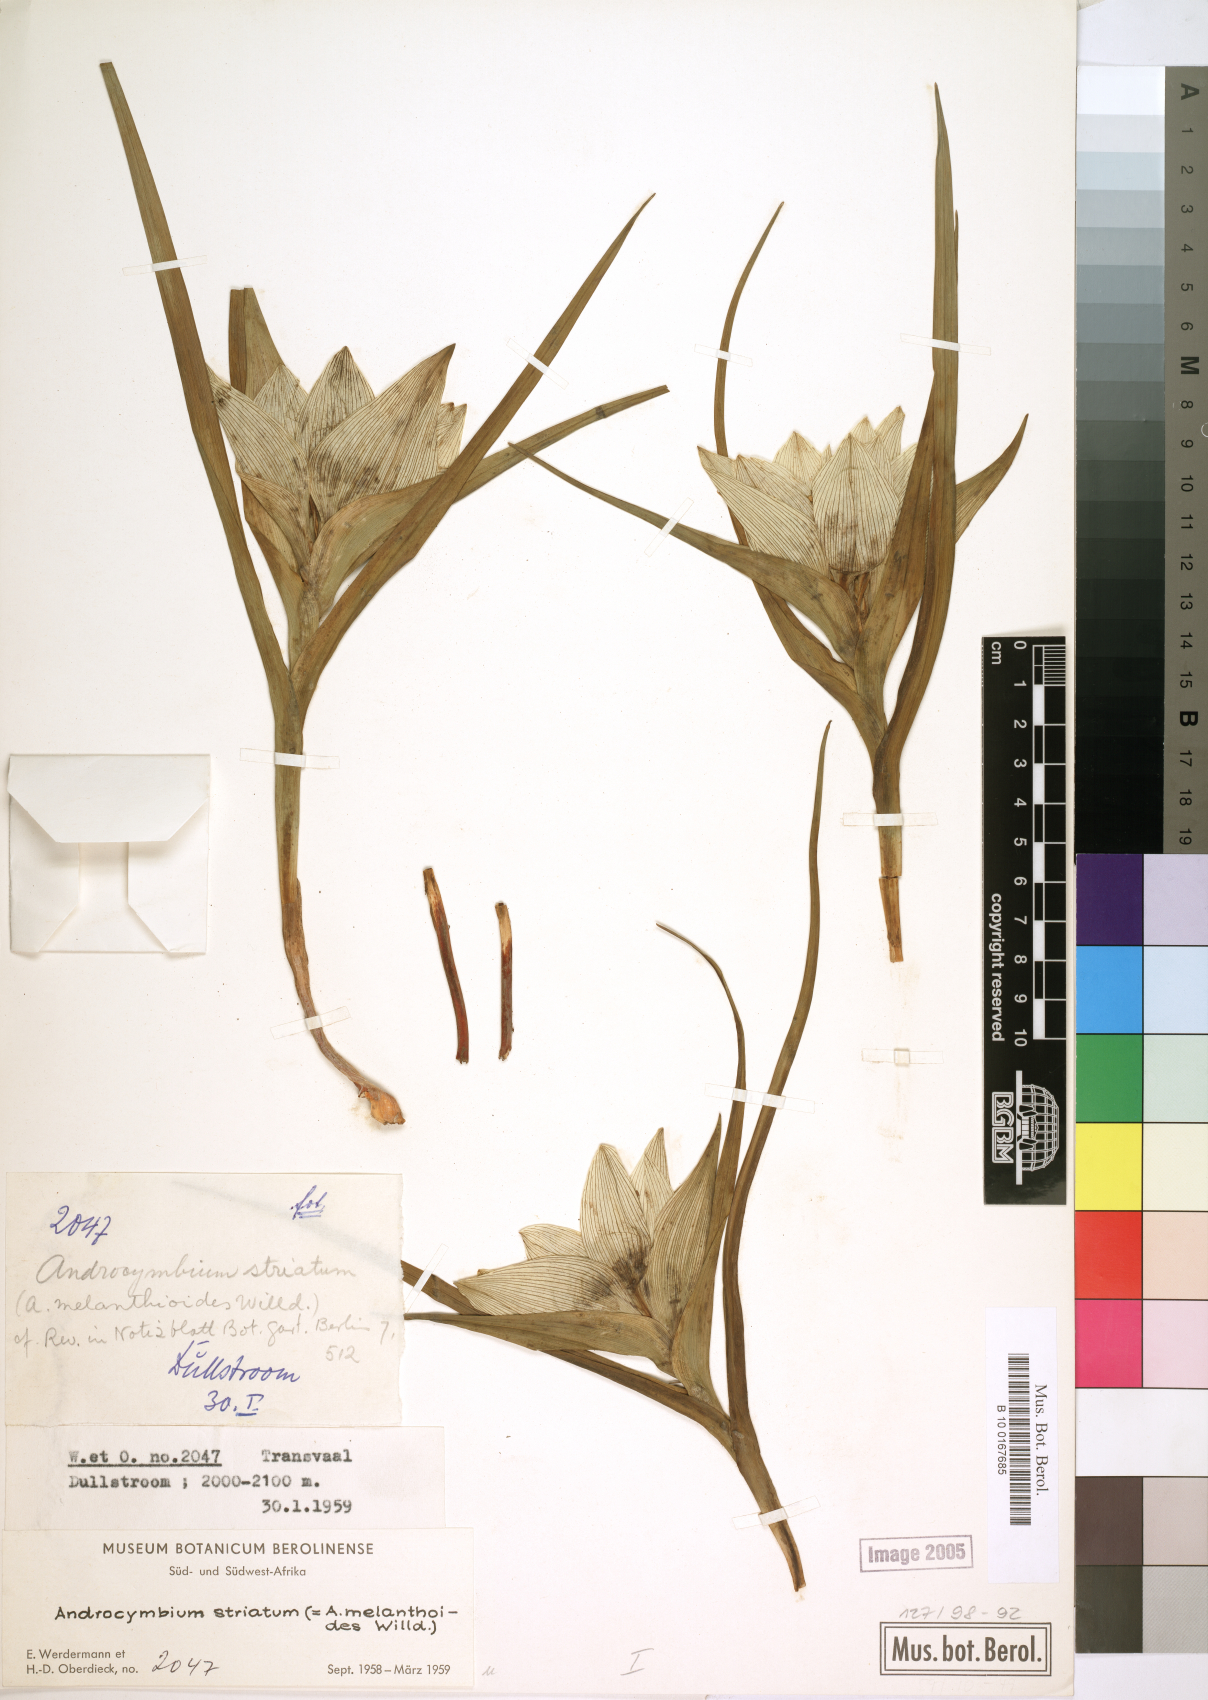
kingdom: Plantae
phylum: Tracheophyta
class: Liliopsida
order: Liliales
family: Colchicaceae
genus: Colchicum
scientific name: Colchicum striatum
